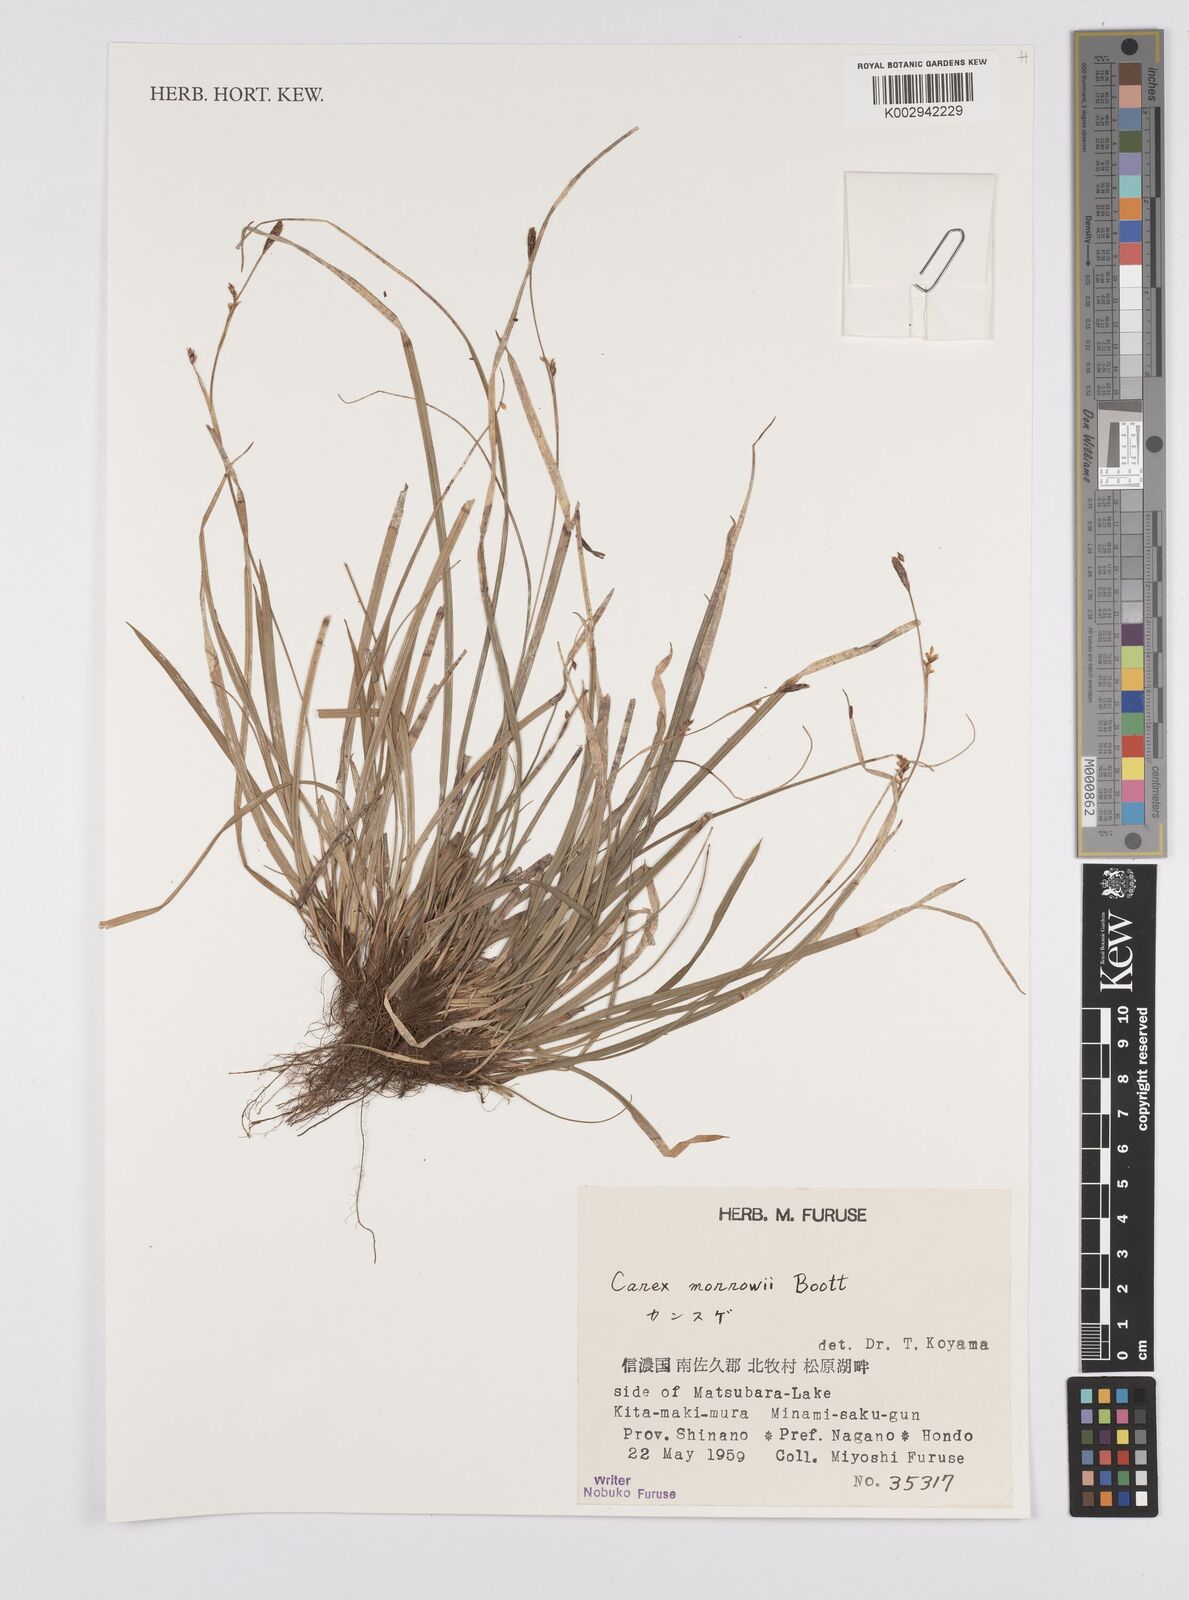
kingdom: Plantae
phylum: Tracheophyta
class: Liliopsida
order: Poales
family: Cyperaceae
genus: Carex
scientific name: Carex morrowii
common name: Japanese sedge
